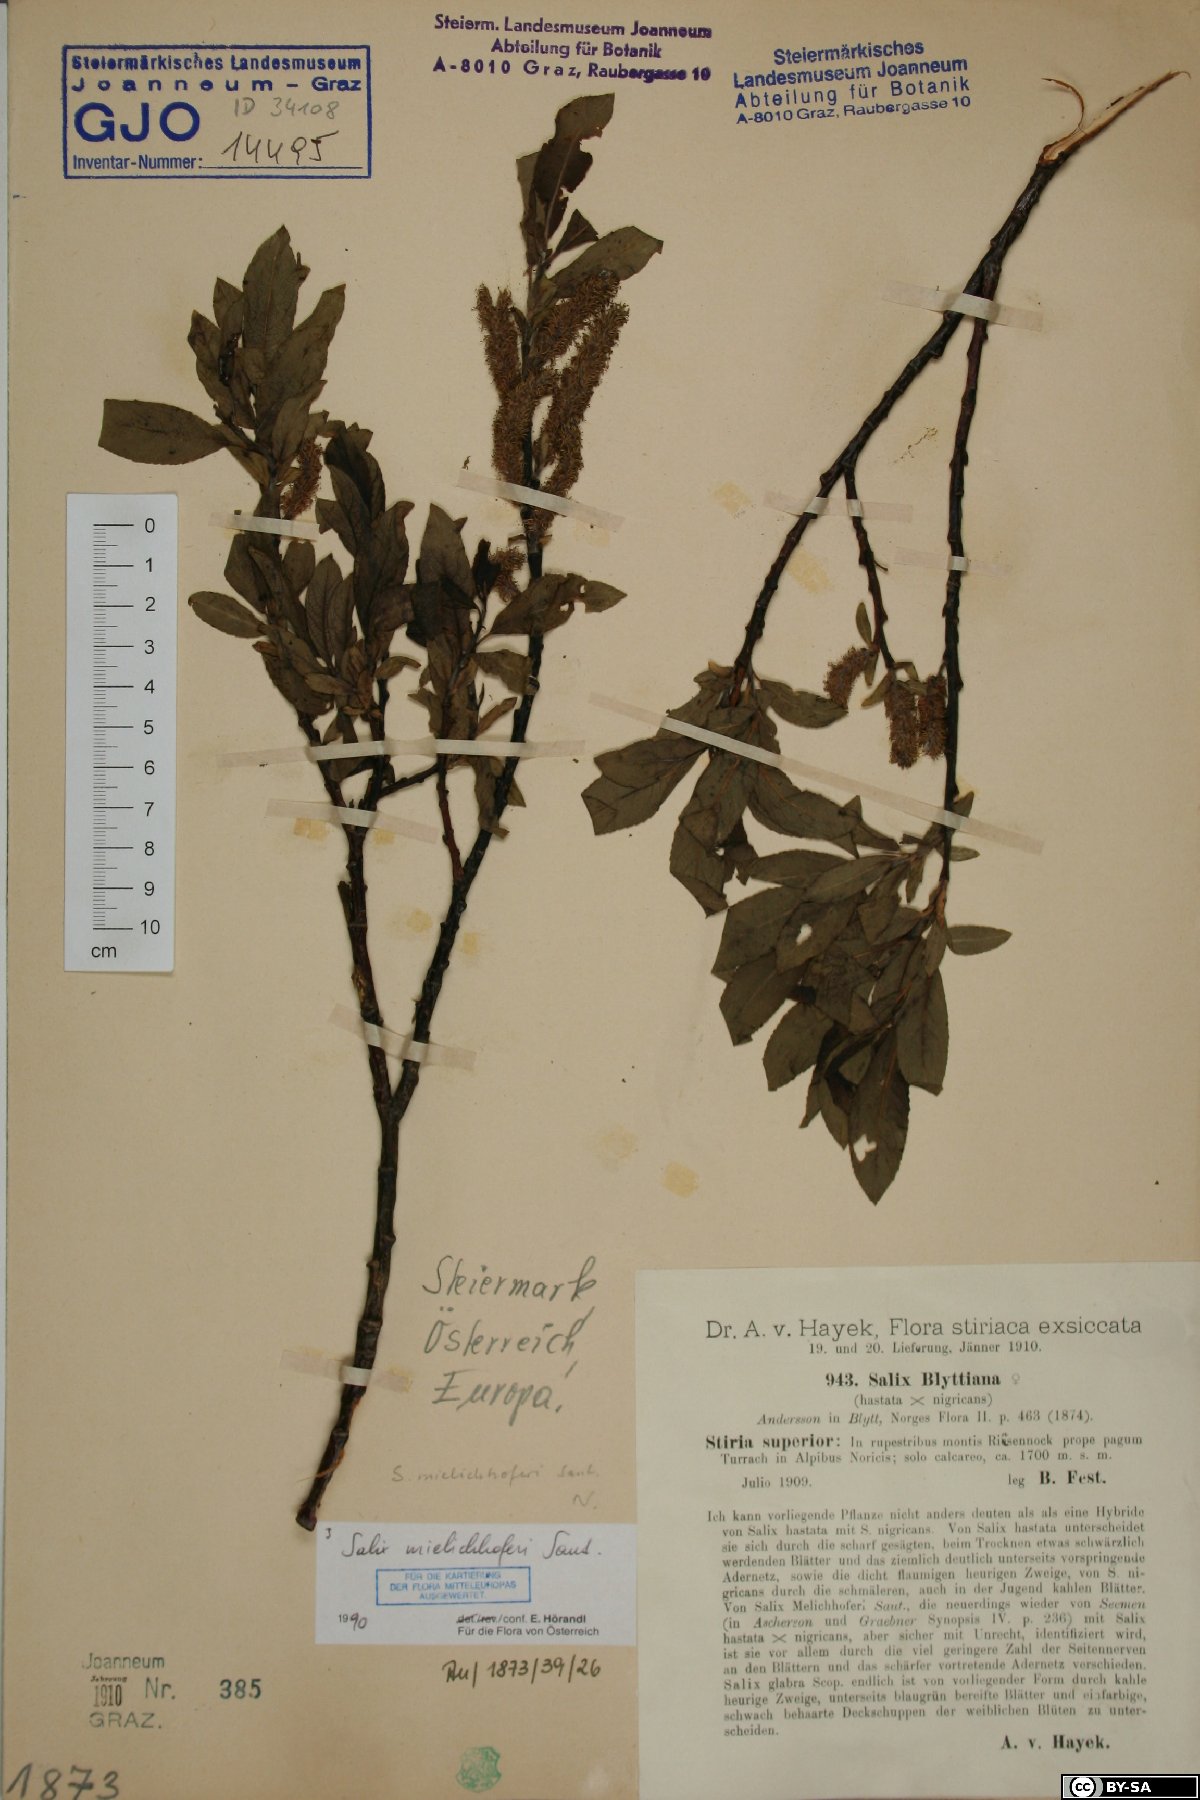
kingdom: Plantae
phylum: Tracheophyta
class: Magnoliopsida
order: Malpighiales
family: Salicaceae
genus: Salix
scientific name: Salix mielichhoferi
